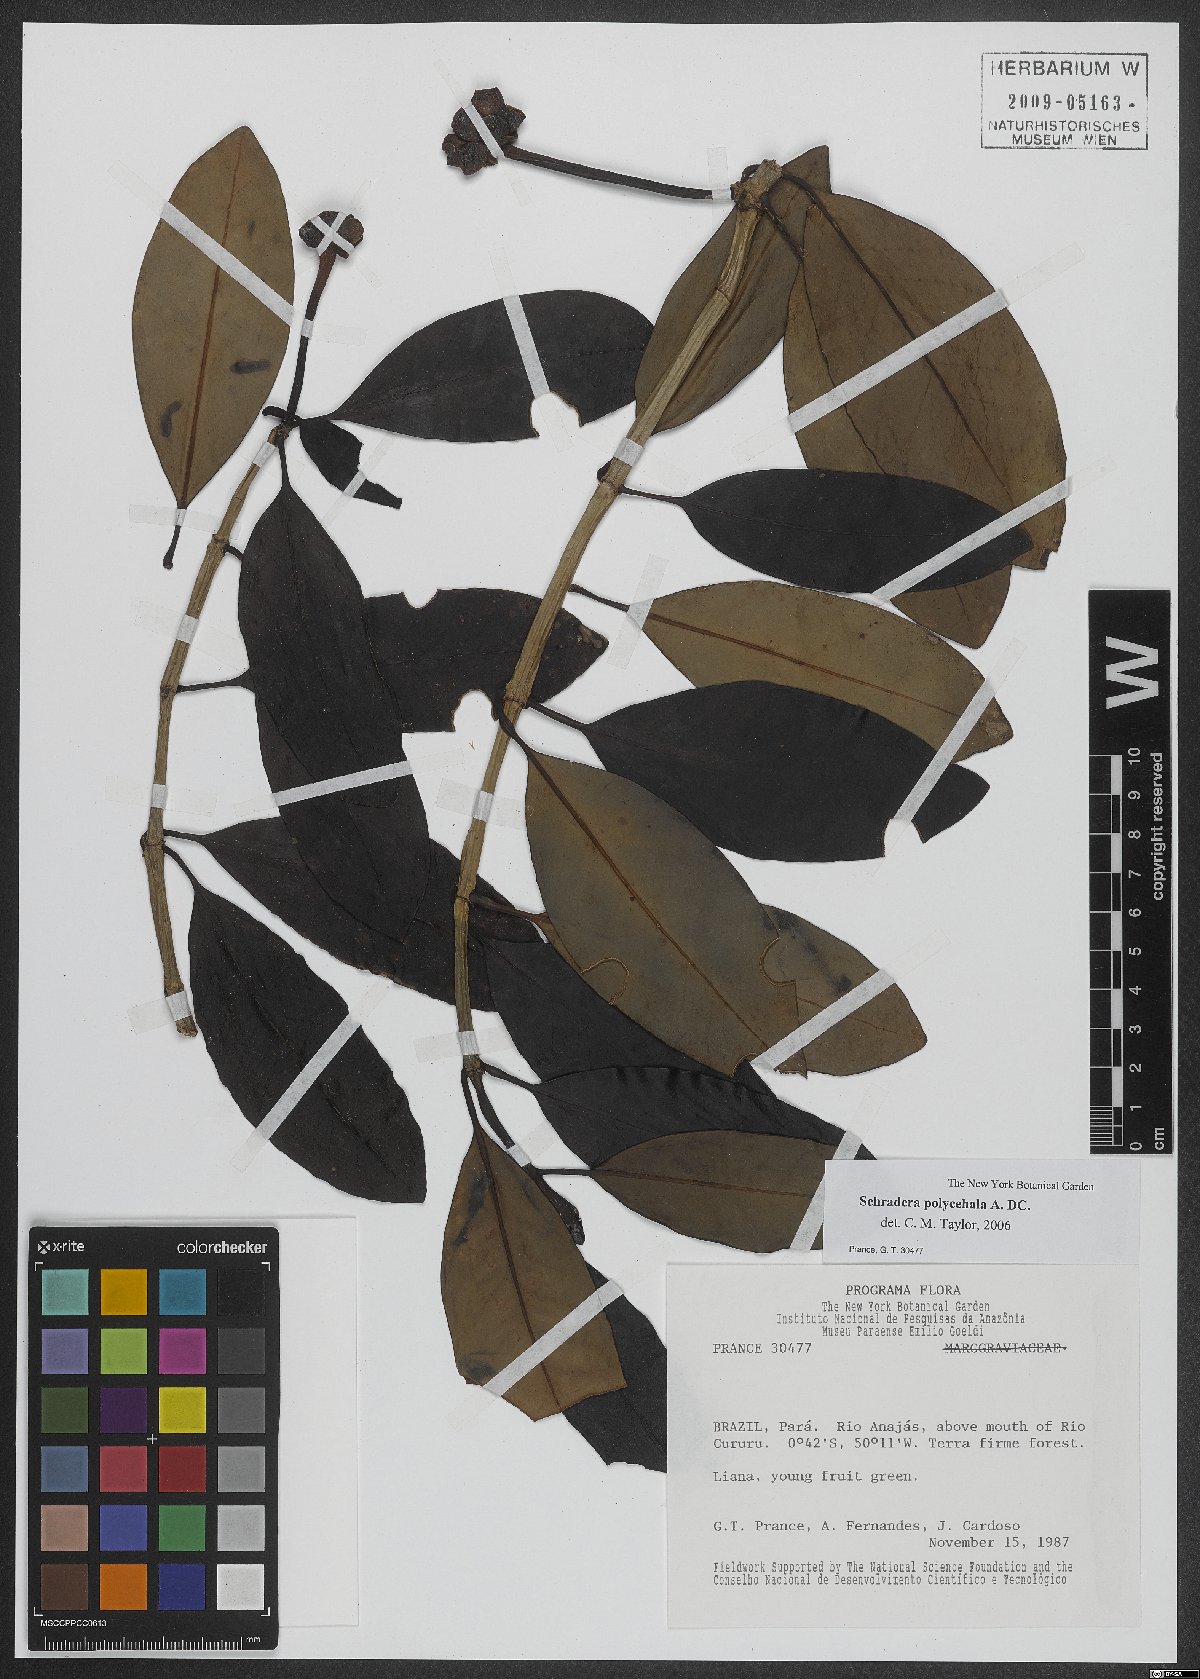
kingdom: Plantae
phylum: Tracheophyta
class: Magnoliopsida
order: Gentianales
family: Rubiaceae
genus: Schradera
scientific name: Schradera polycephala
